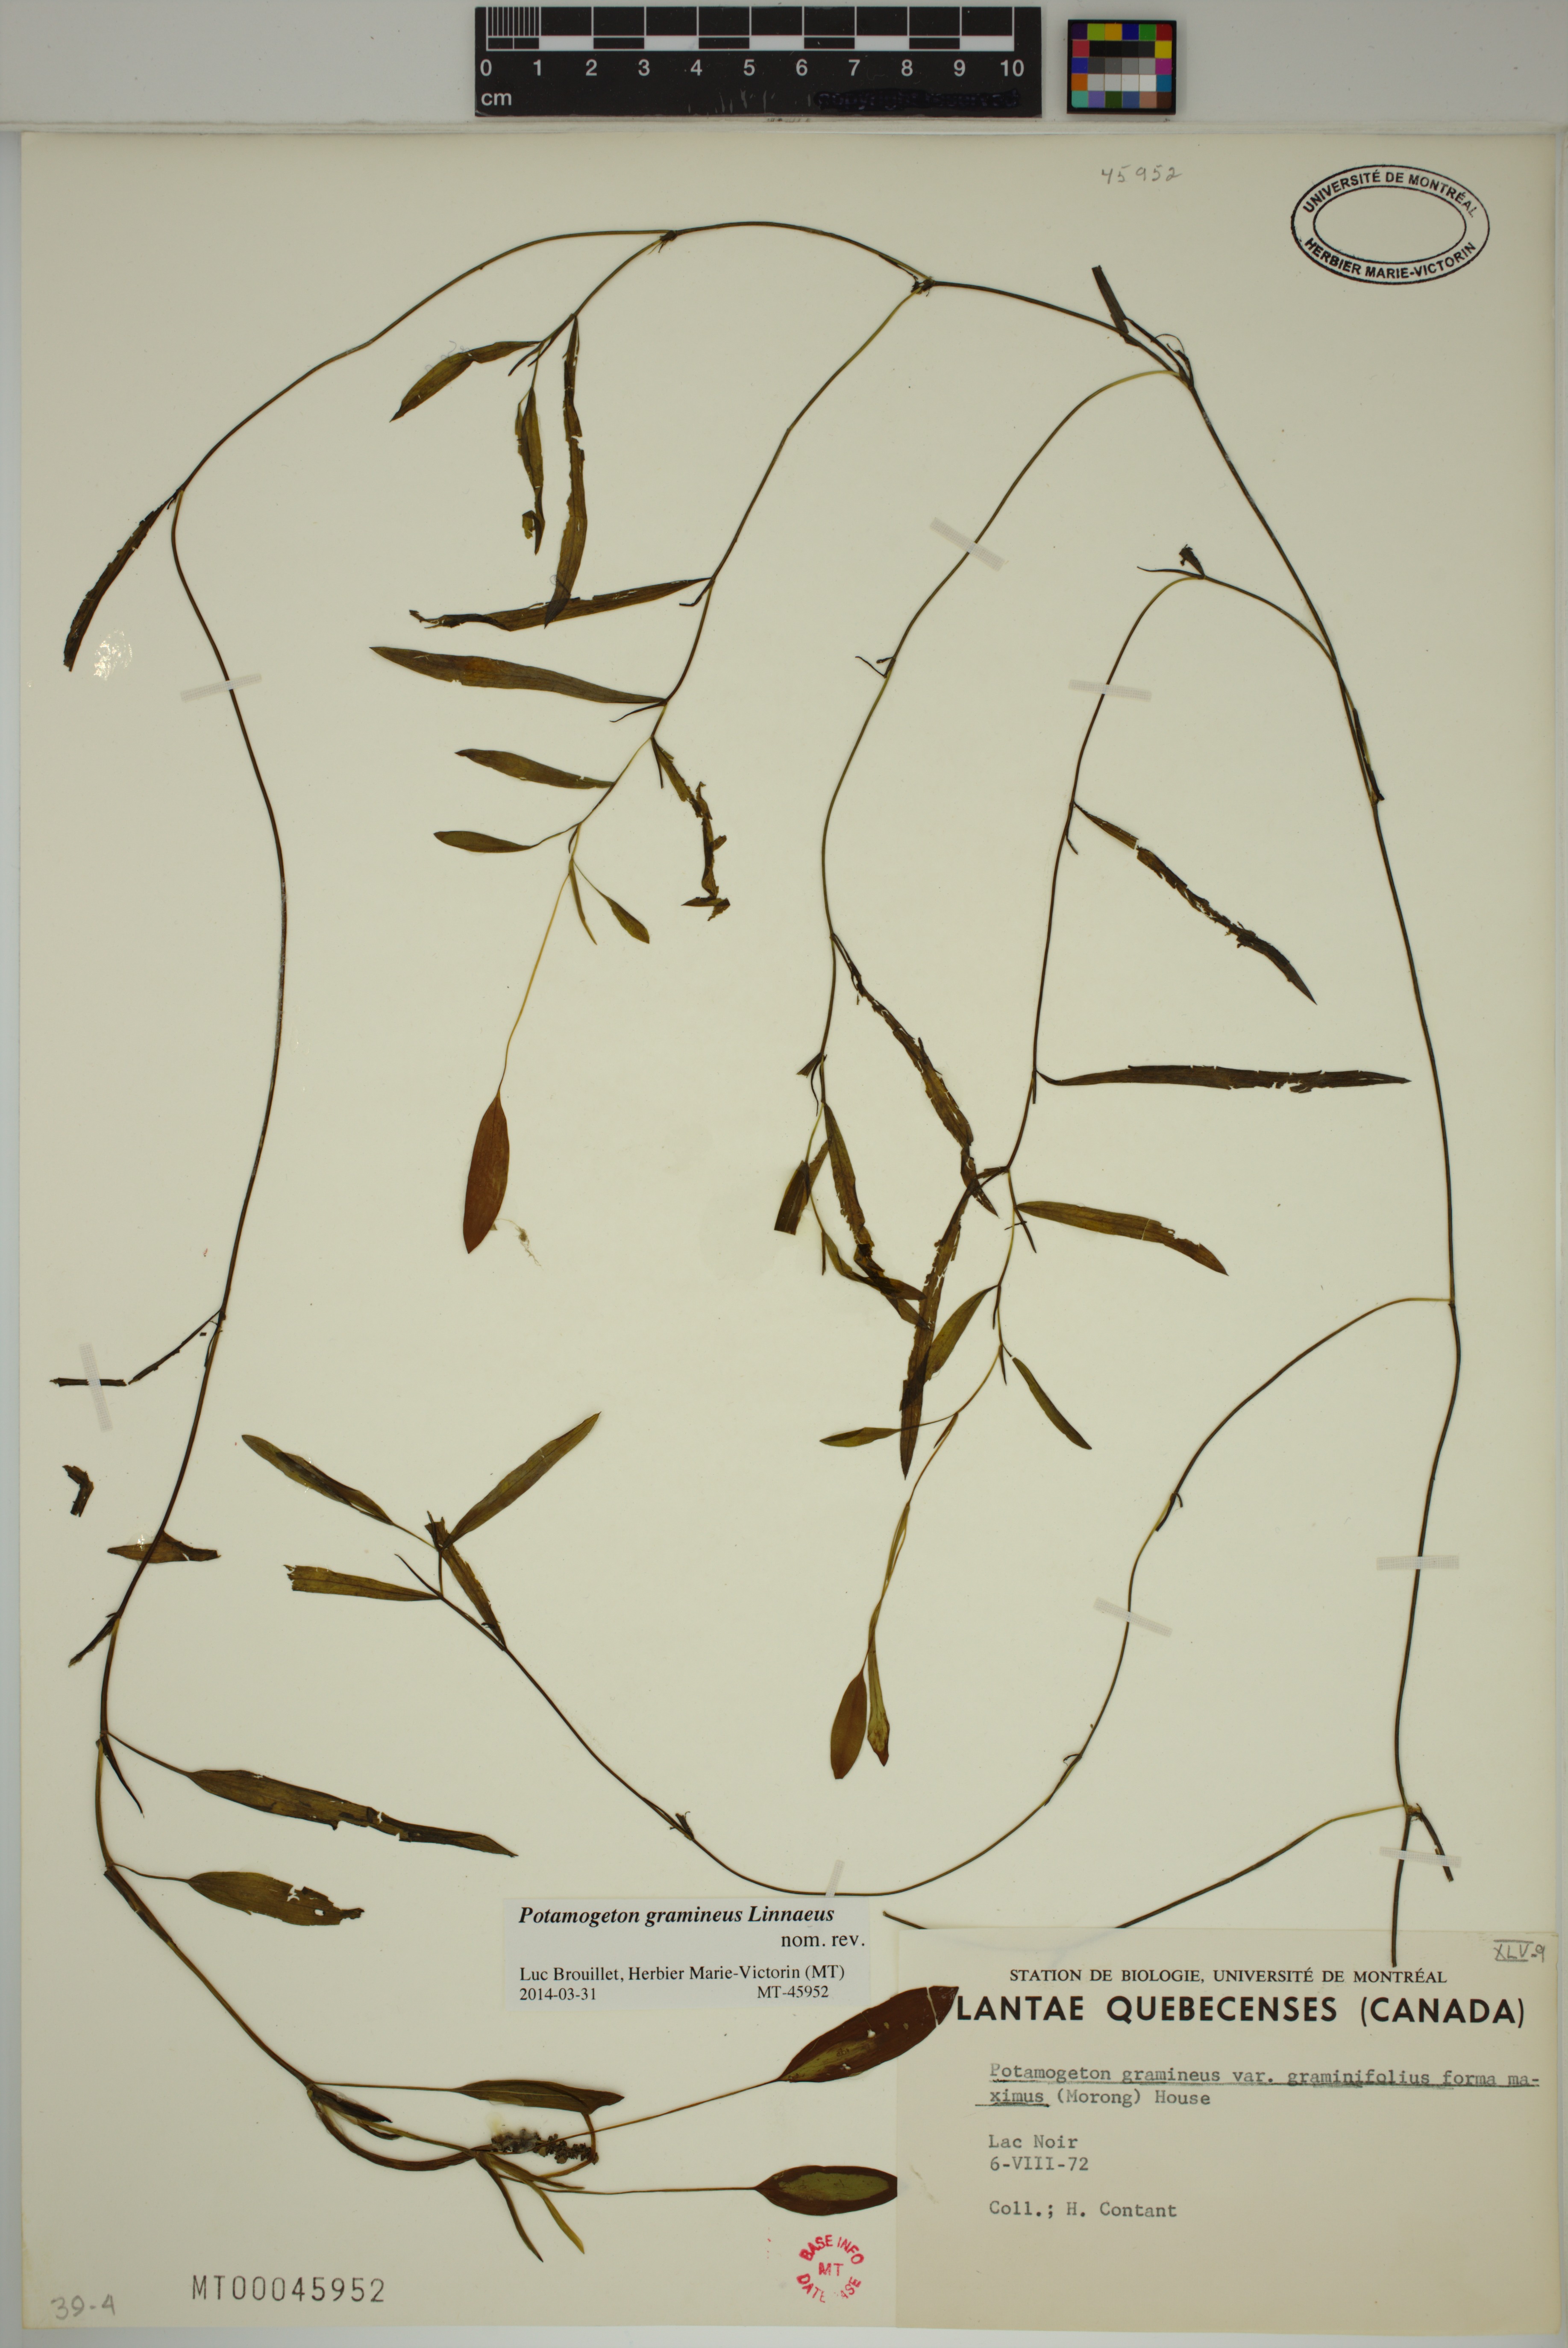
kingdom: Plantae
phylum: Tracheophyta
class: Liliopsida
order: Alismatales
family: Potamogetonaceae
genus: Potamogeton
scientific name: Potamogeton gramineus
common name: Various-leaved pondweed
